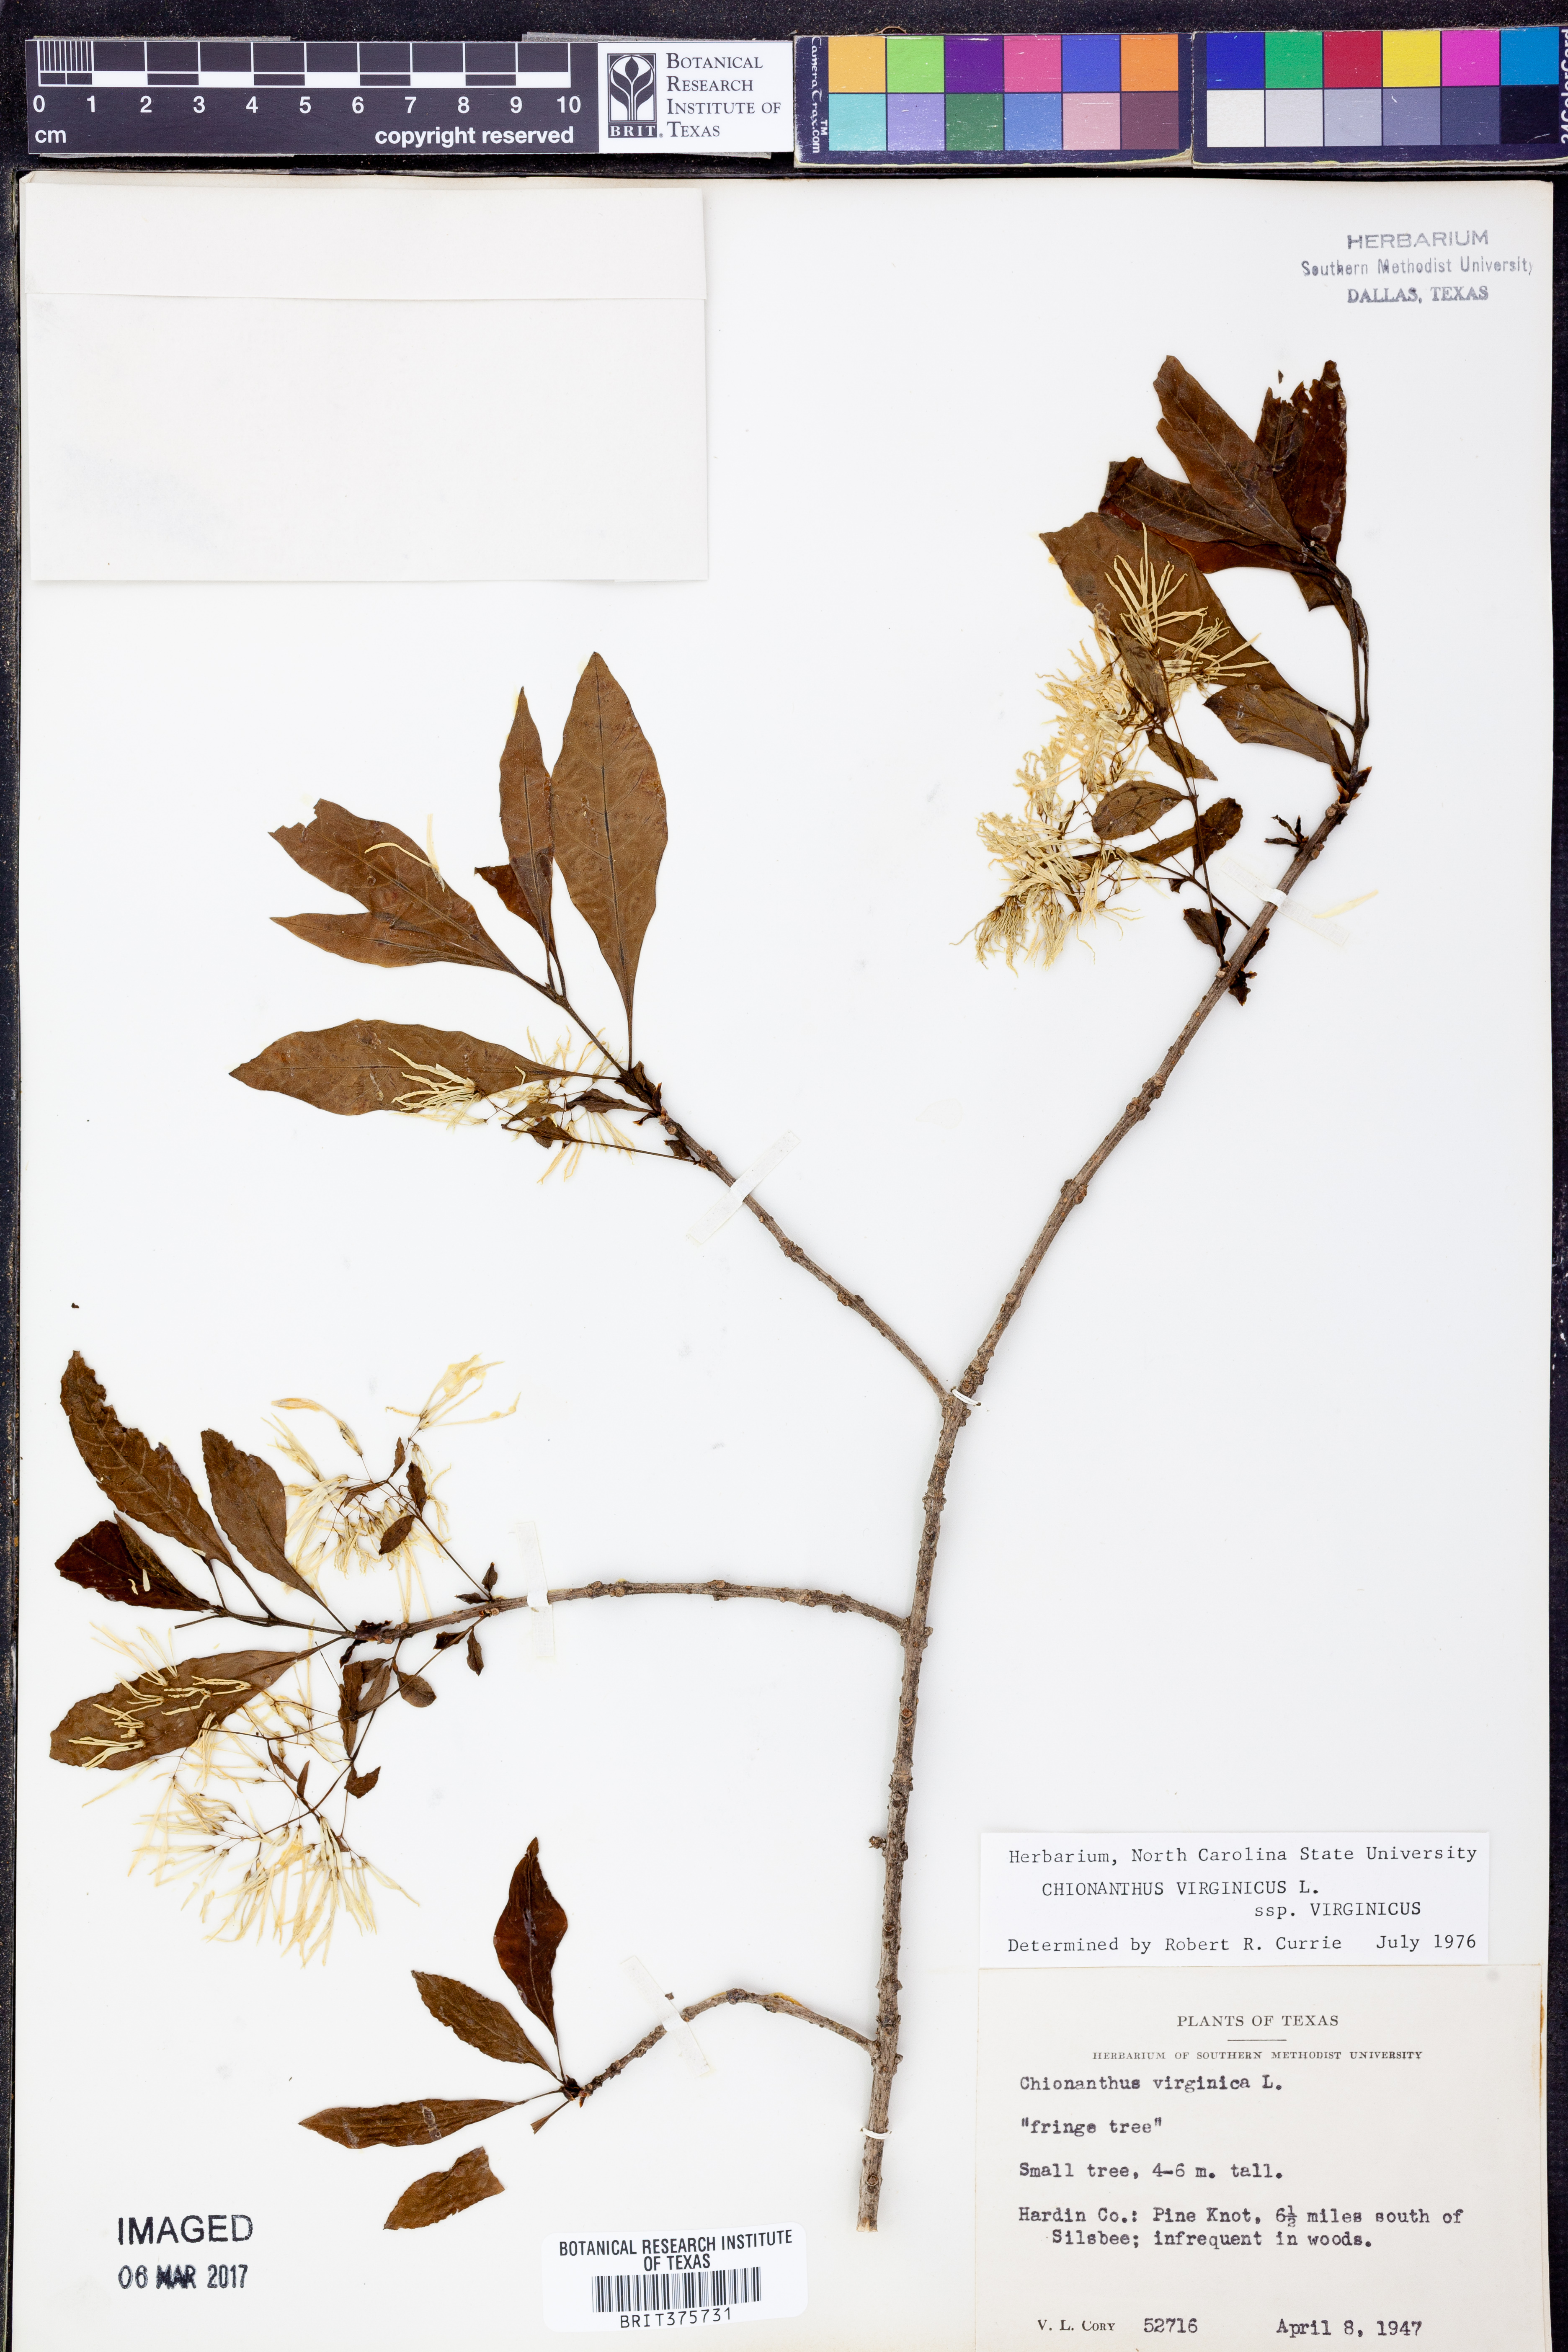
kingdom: Plantae
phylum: Tracheophyta
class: Magnoliopsida
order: Lamiales
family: Oleaceae
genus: Chionanthus
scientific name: Chionanthus virginicus
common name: American fringetree
